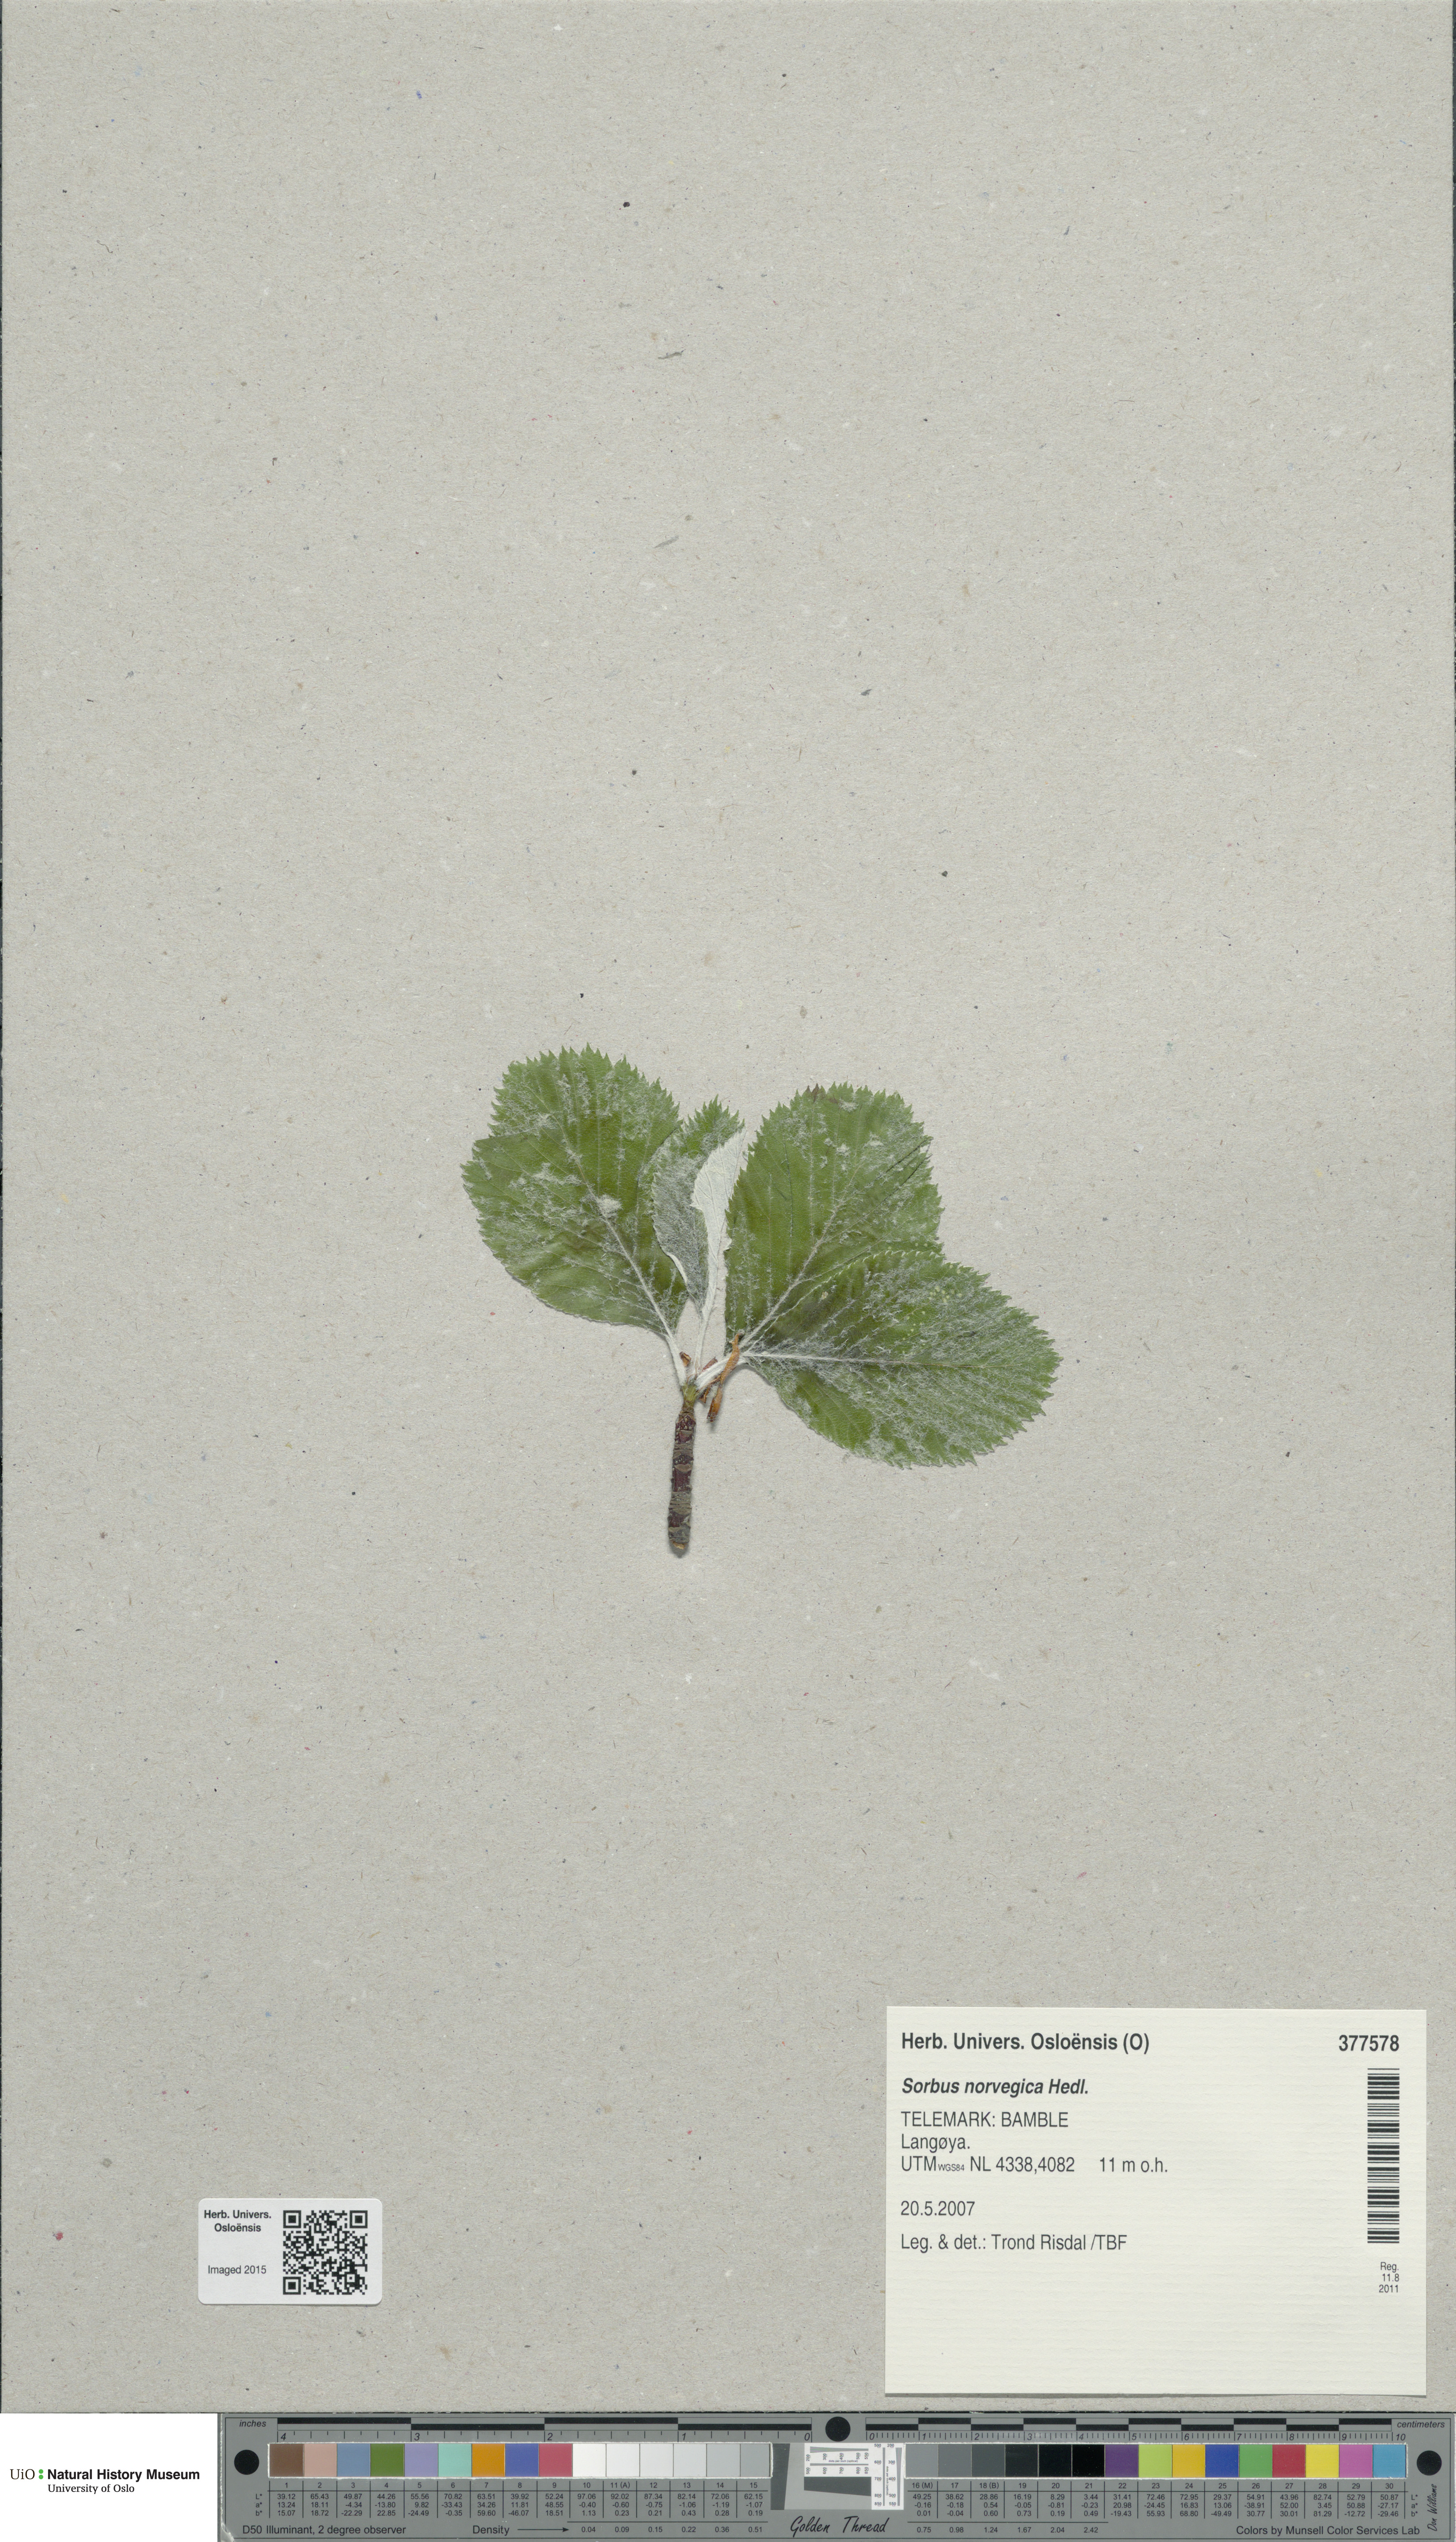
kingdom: Plantae
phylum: Tracheophyta
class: Magnoliopsida
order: Rosales
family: Rosaceae
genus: Aria
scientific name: Aria obtusifolia
